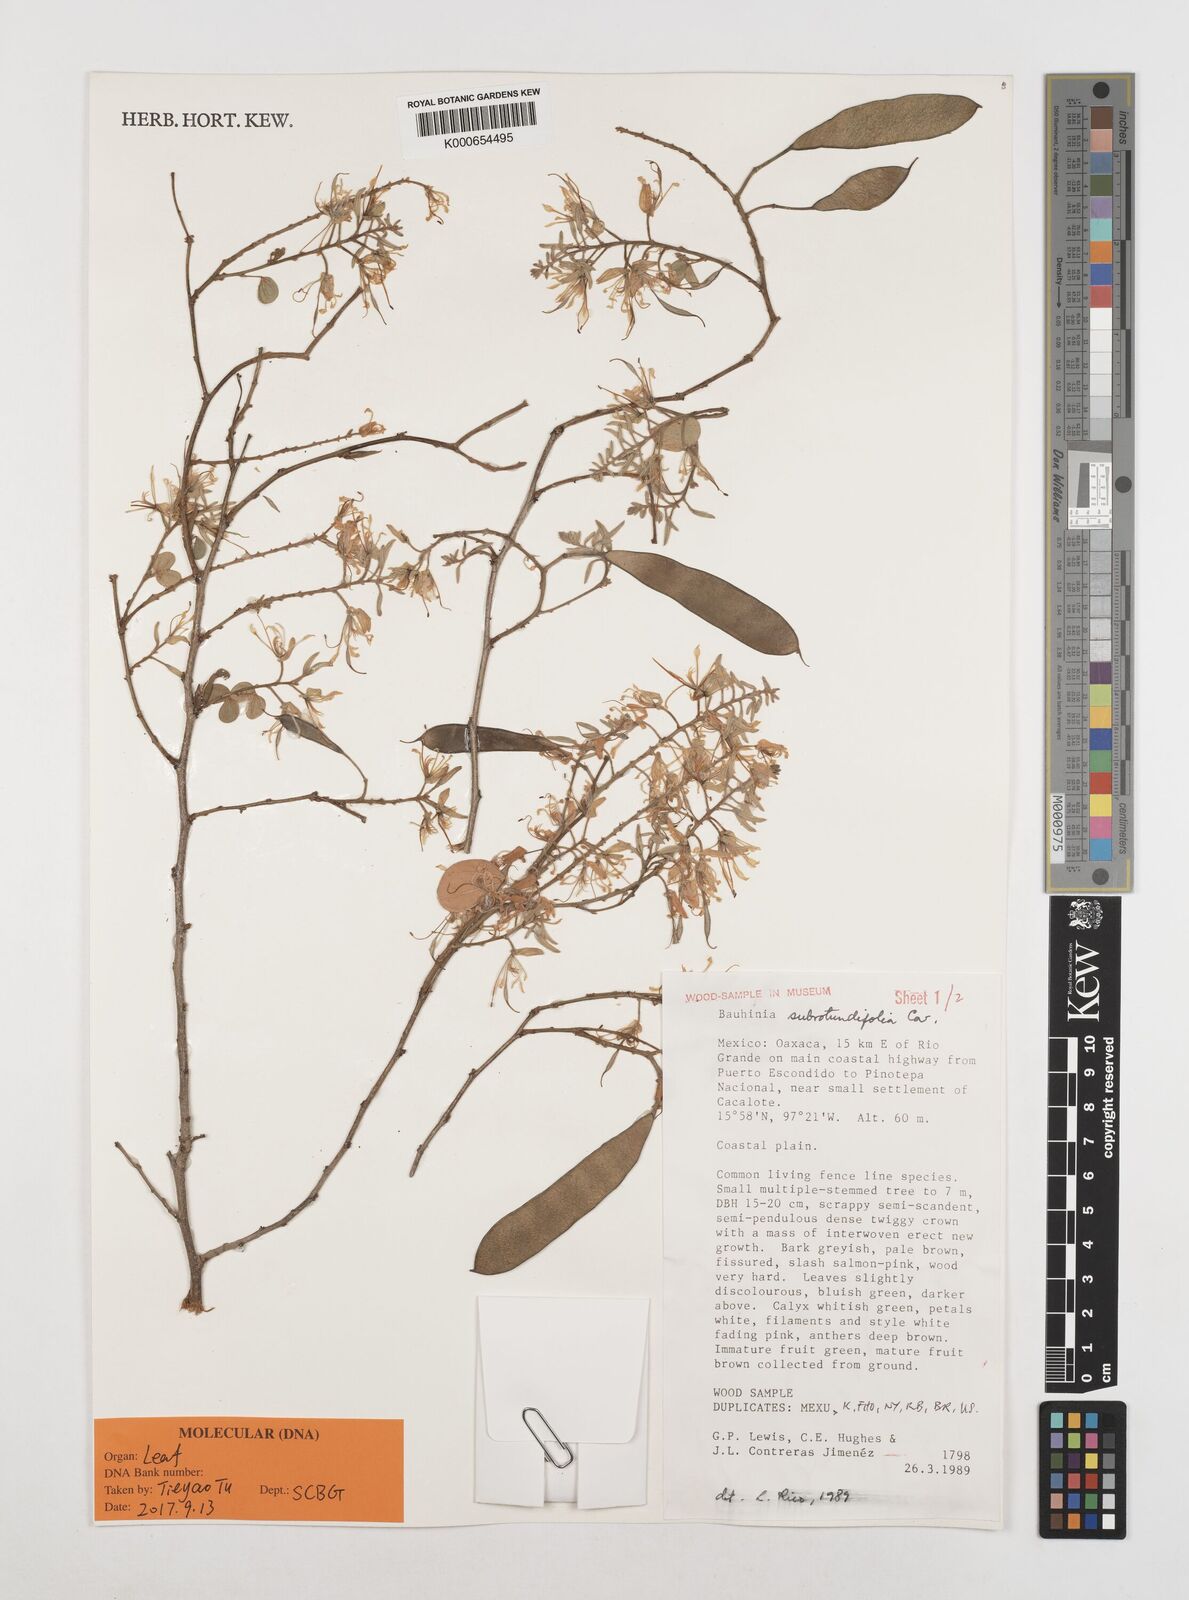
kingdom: Plantae
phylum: Tracheophyta
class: Magnoliopsida
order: Fabales
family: Fabaceae
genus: Bauhinia
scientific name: Bauhinia subrotundifolia
